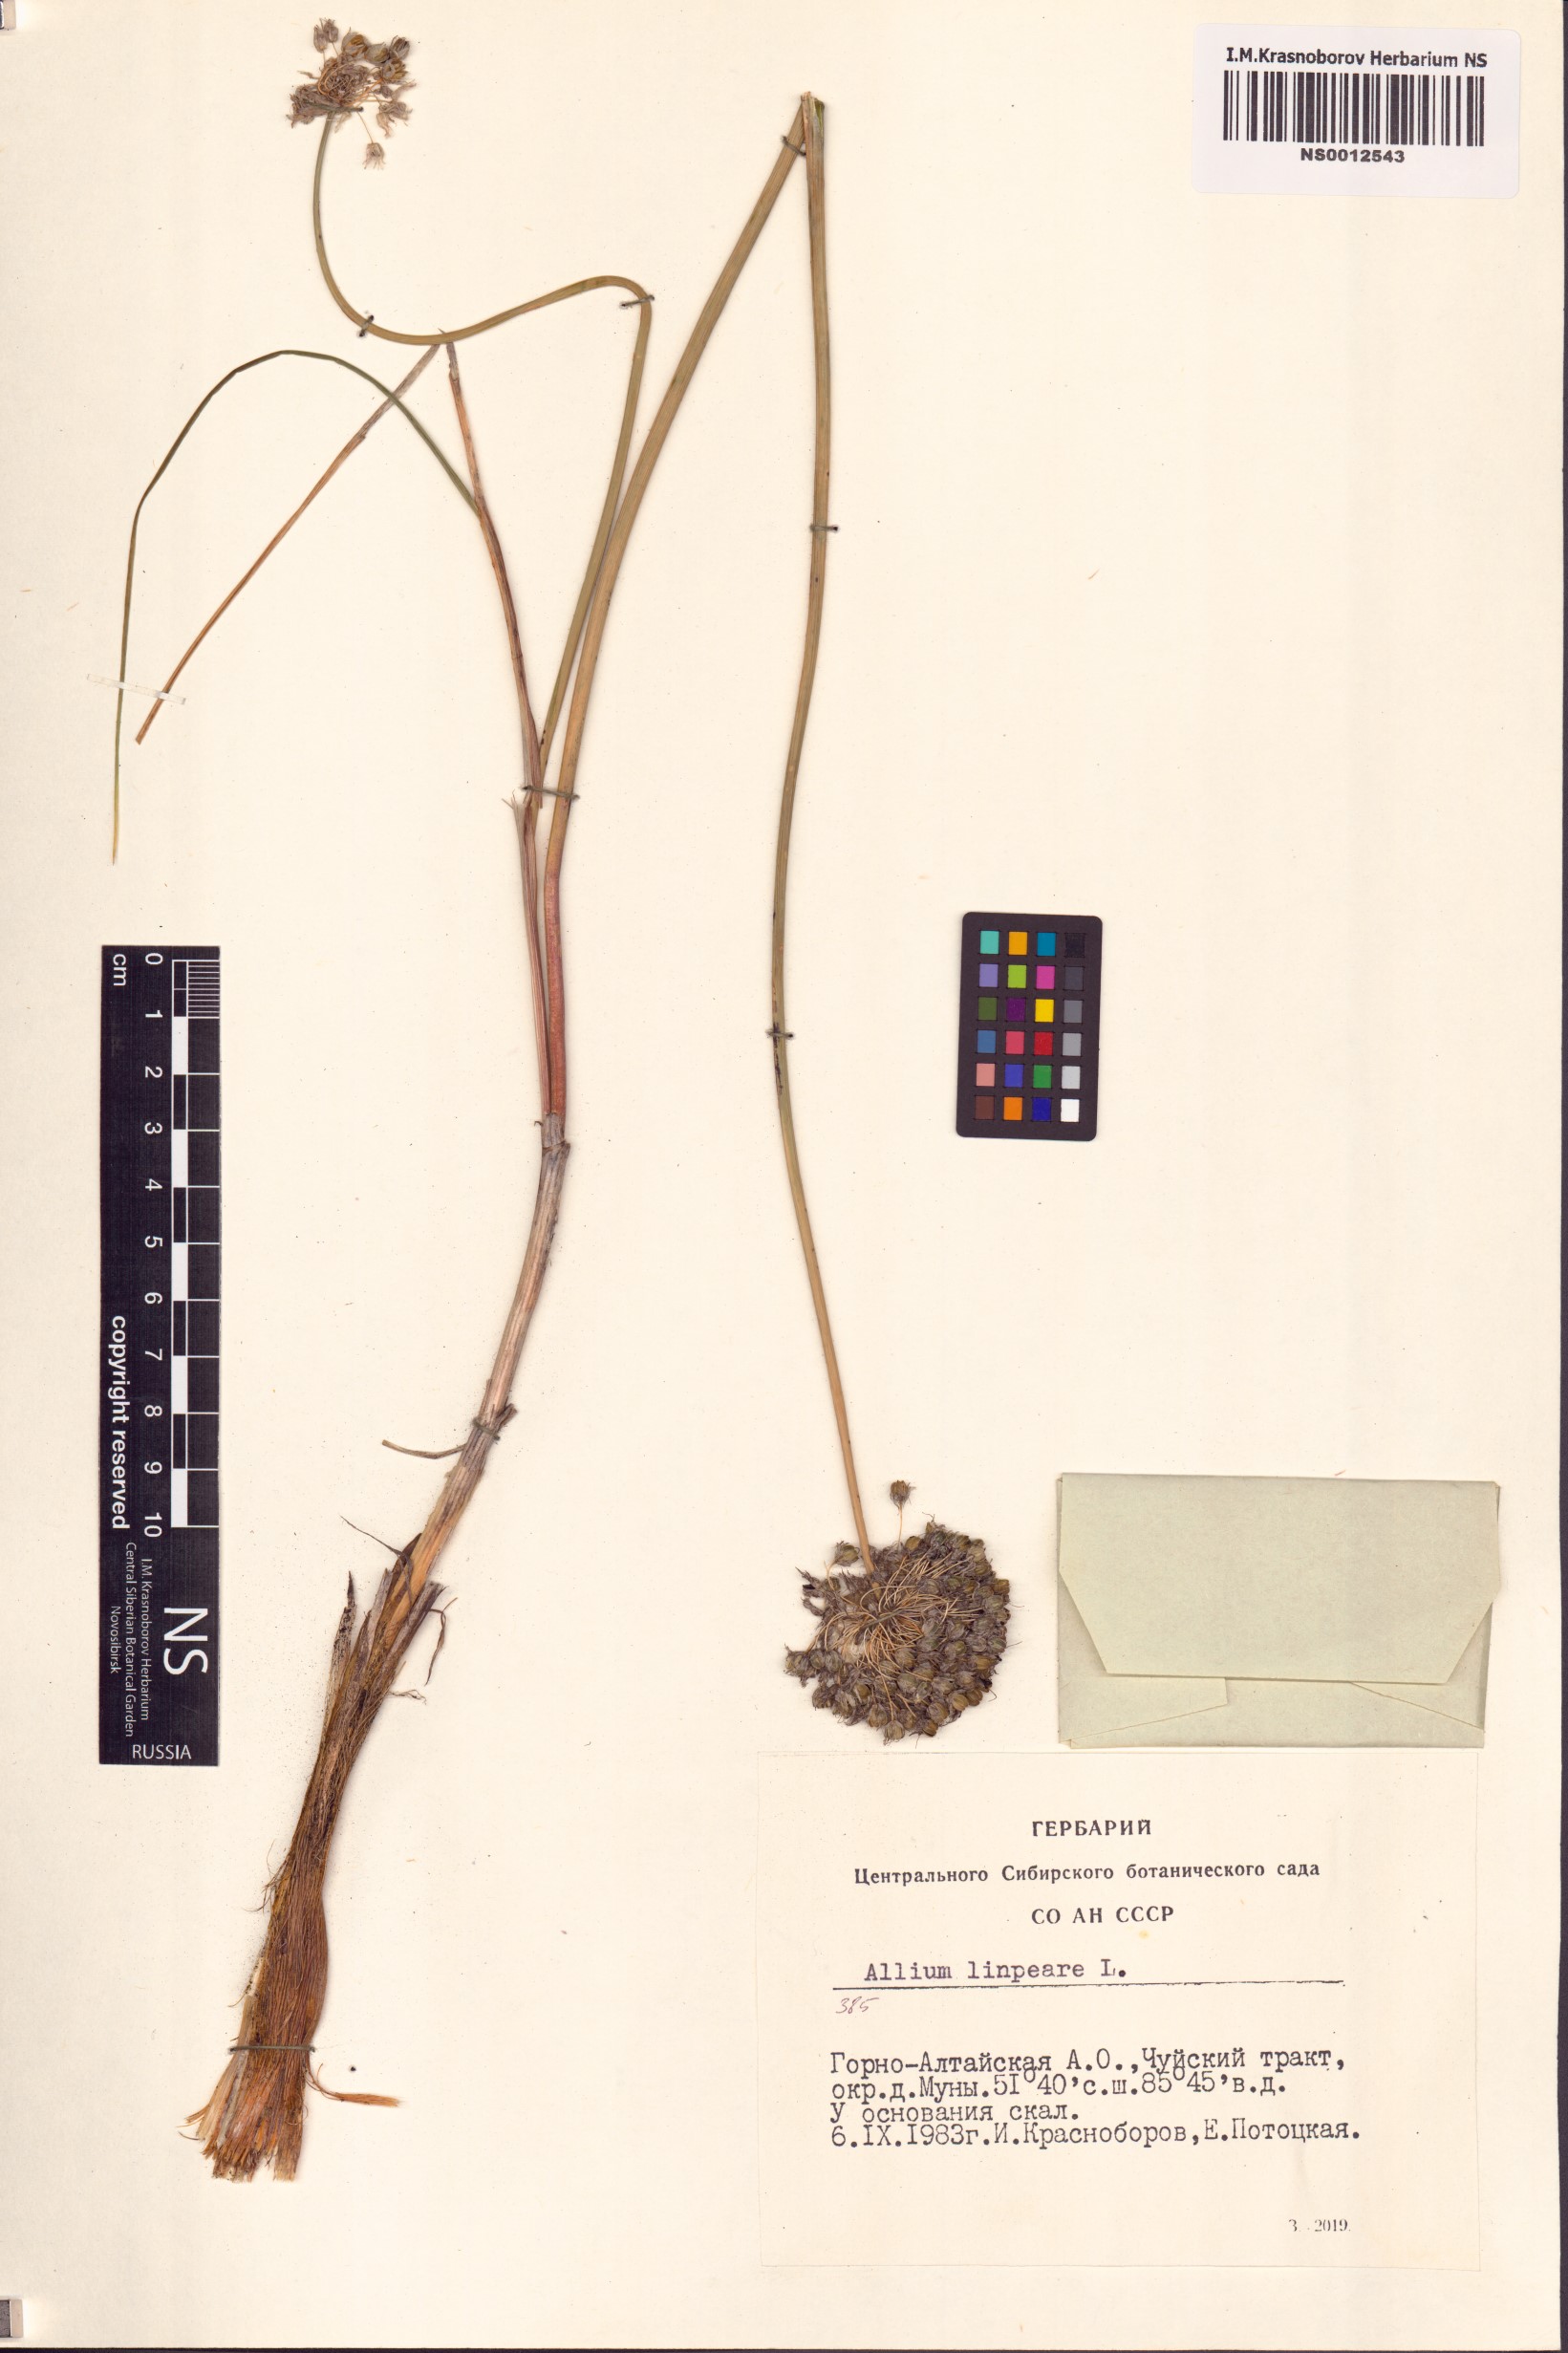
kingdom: Plantae
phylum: Tracheophyta
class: Liliopsida
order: Asparagales
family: Amaryllidaceae
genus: Allium
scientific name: Allium lineare
